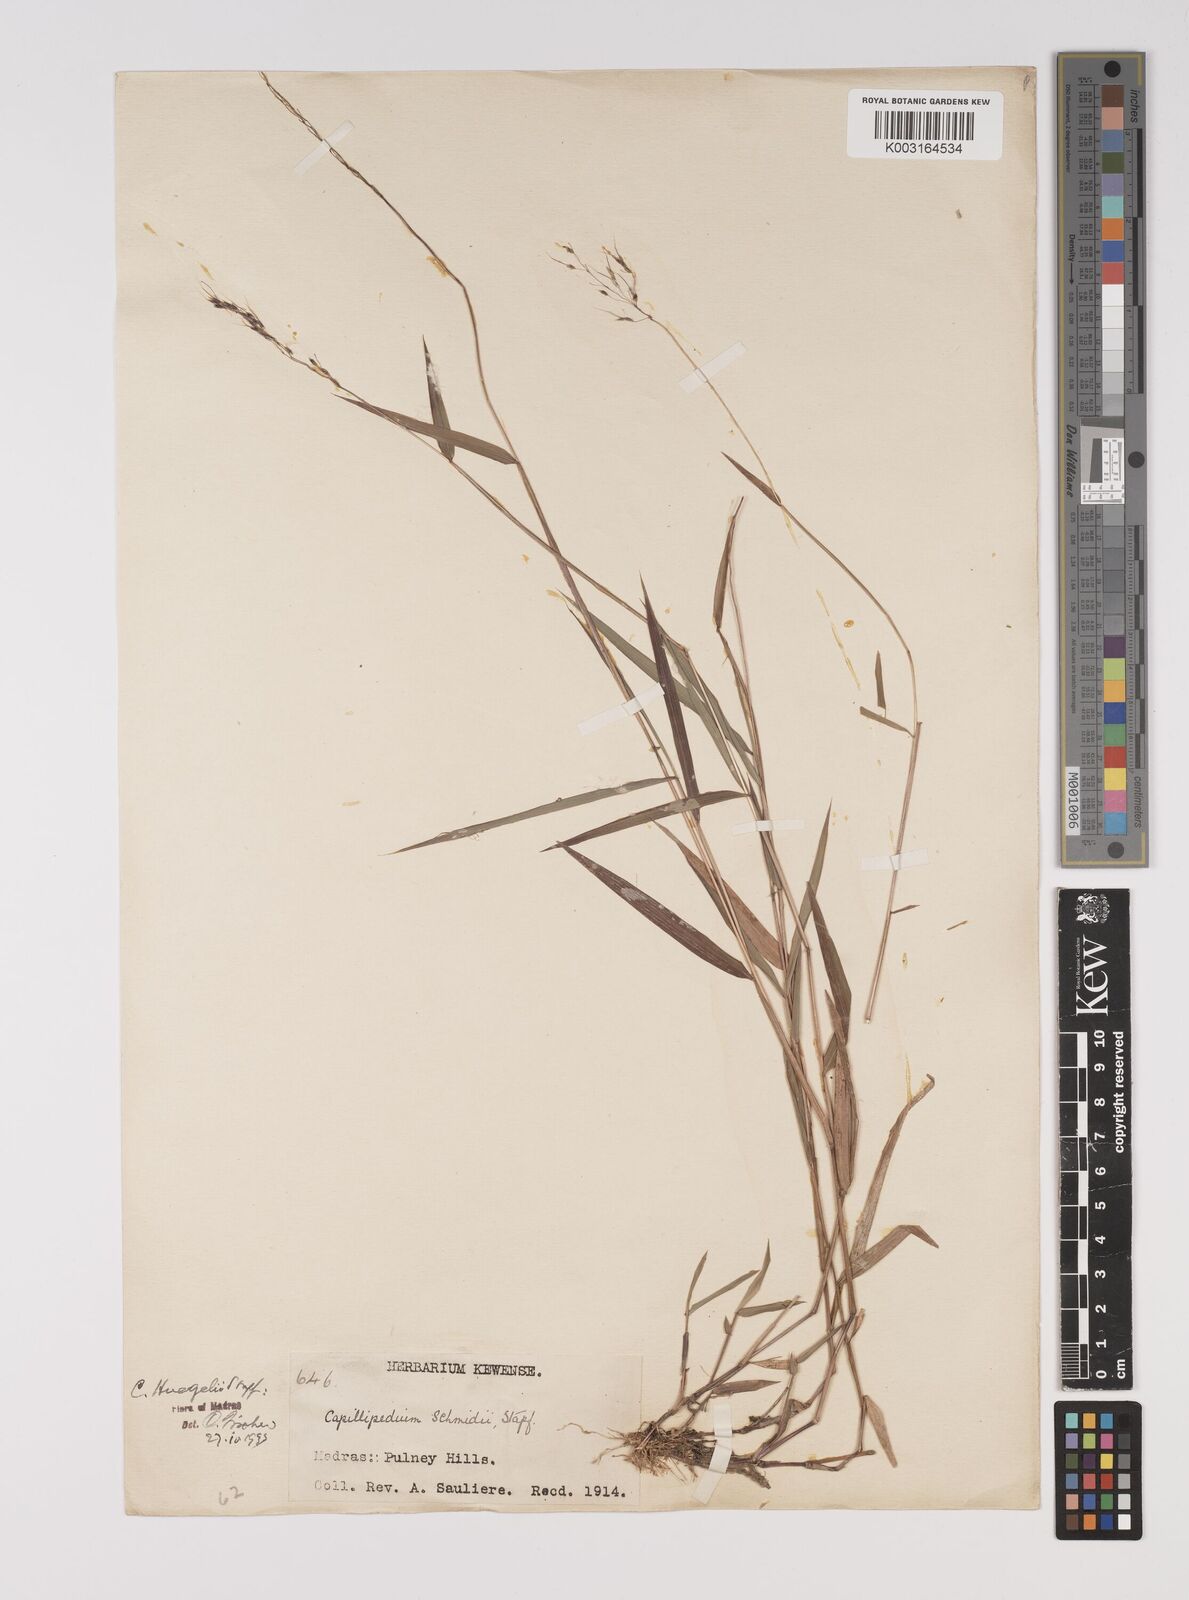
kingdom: Plantae
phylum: Tracheophyta
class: Liliopsida
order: Poales
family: Poaceae
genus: Capillipedium
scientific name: Capillipedium huegelii
